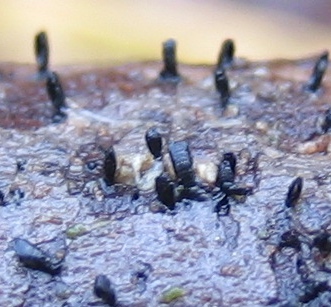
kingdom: Fungi
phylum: Ascomycota
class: Eurotiomycetes
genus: Glyphium
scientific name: Glyphium elatum
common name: kuløkse
